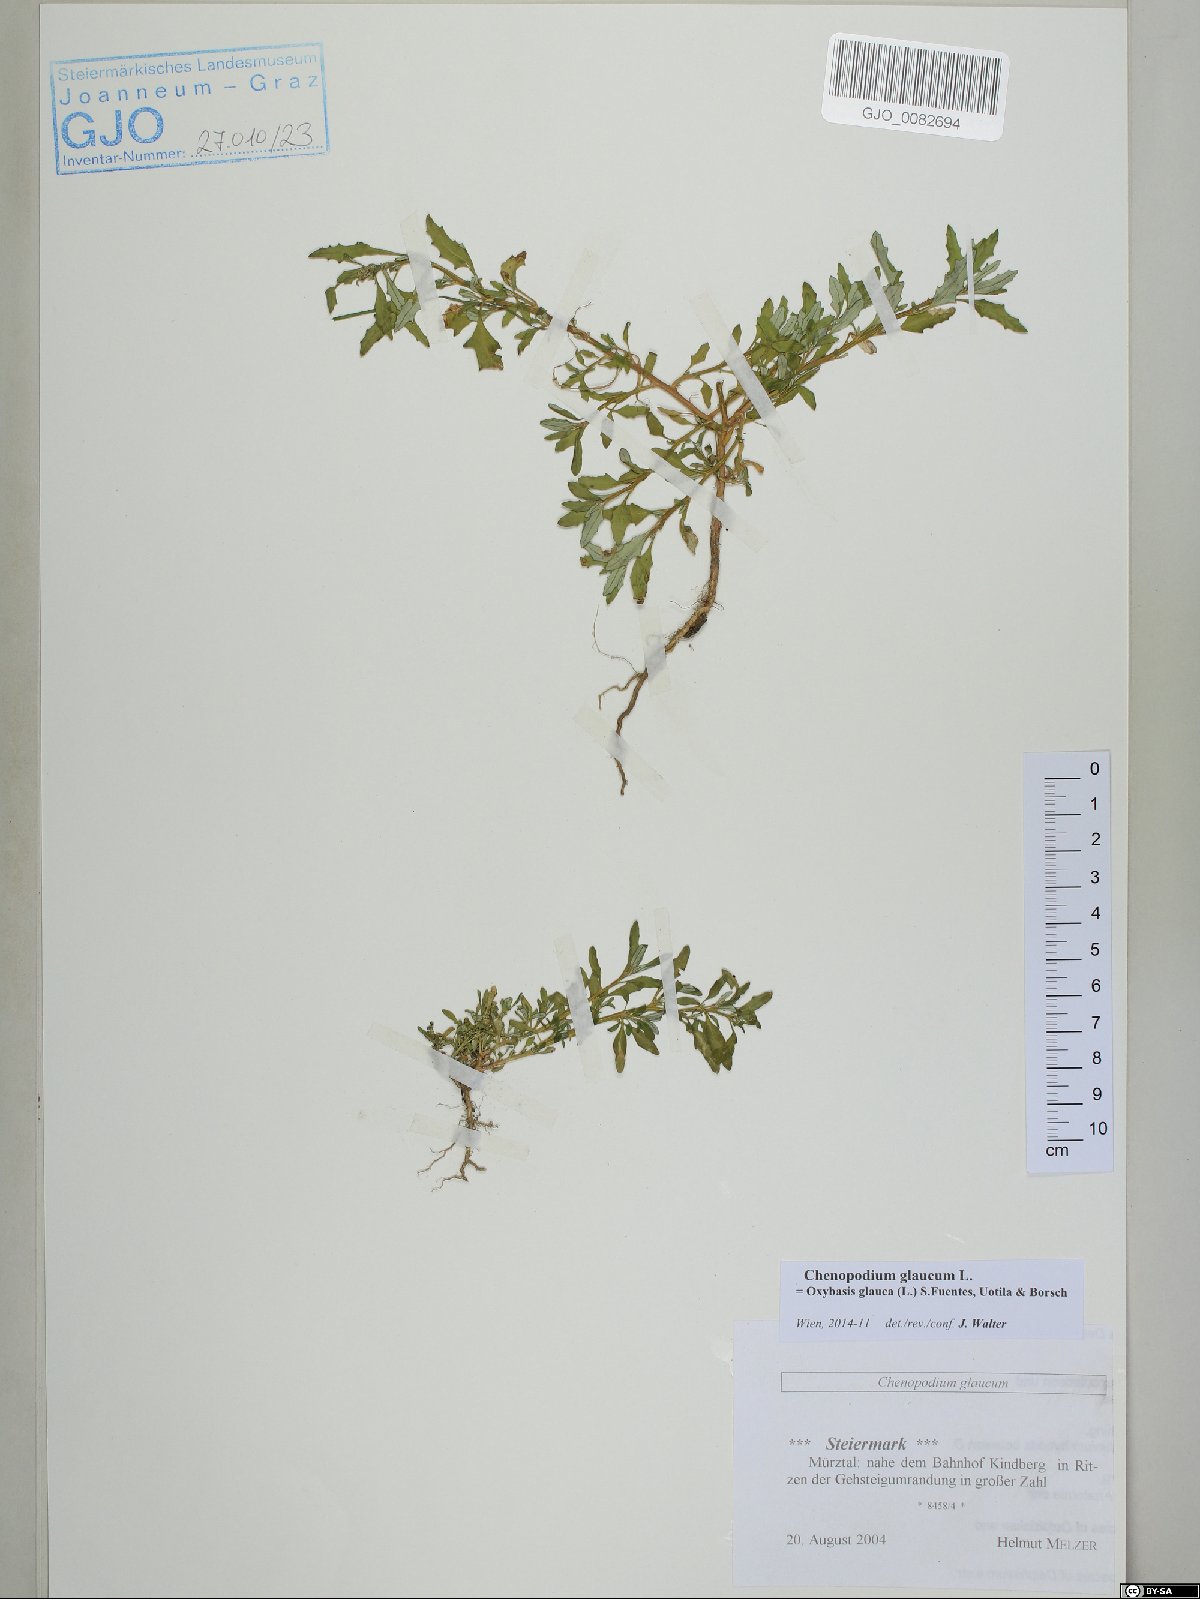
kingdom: Plantae
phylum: Tracheophyta
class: Magnoliopsida
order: Caryophyllales
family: Amaranthaceae
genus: Oxybasis
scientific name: Oxybasis glauca
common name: Glaucous goosefoot
